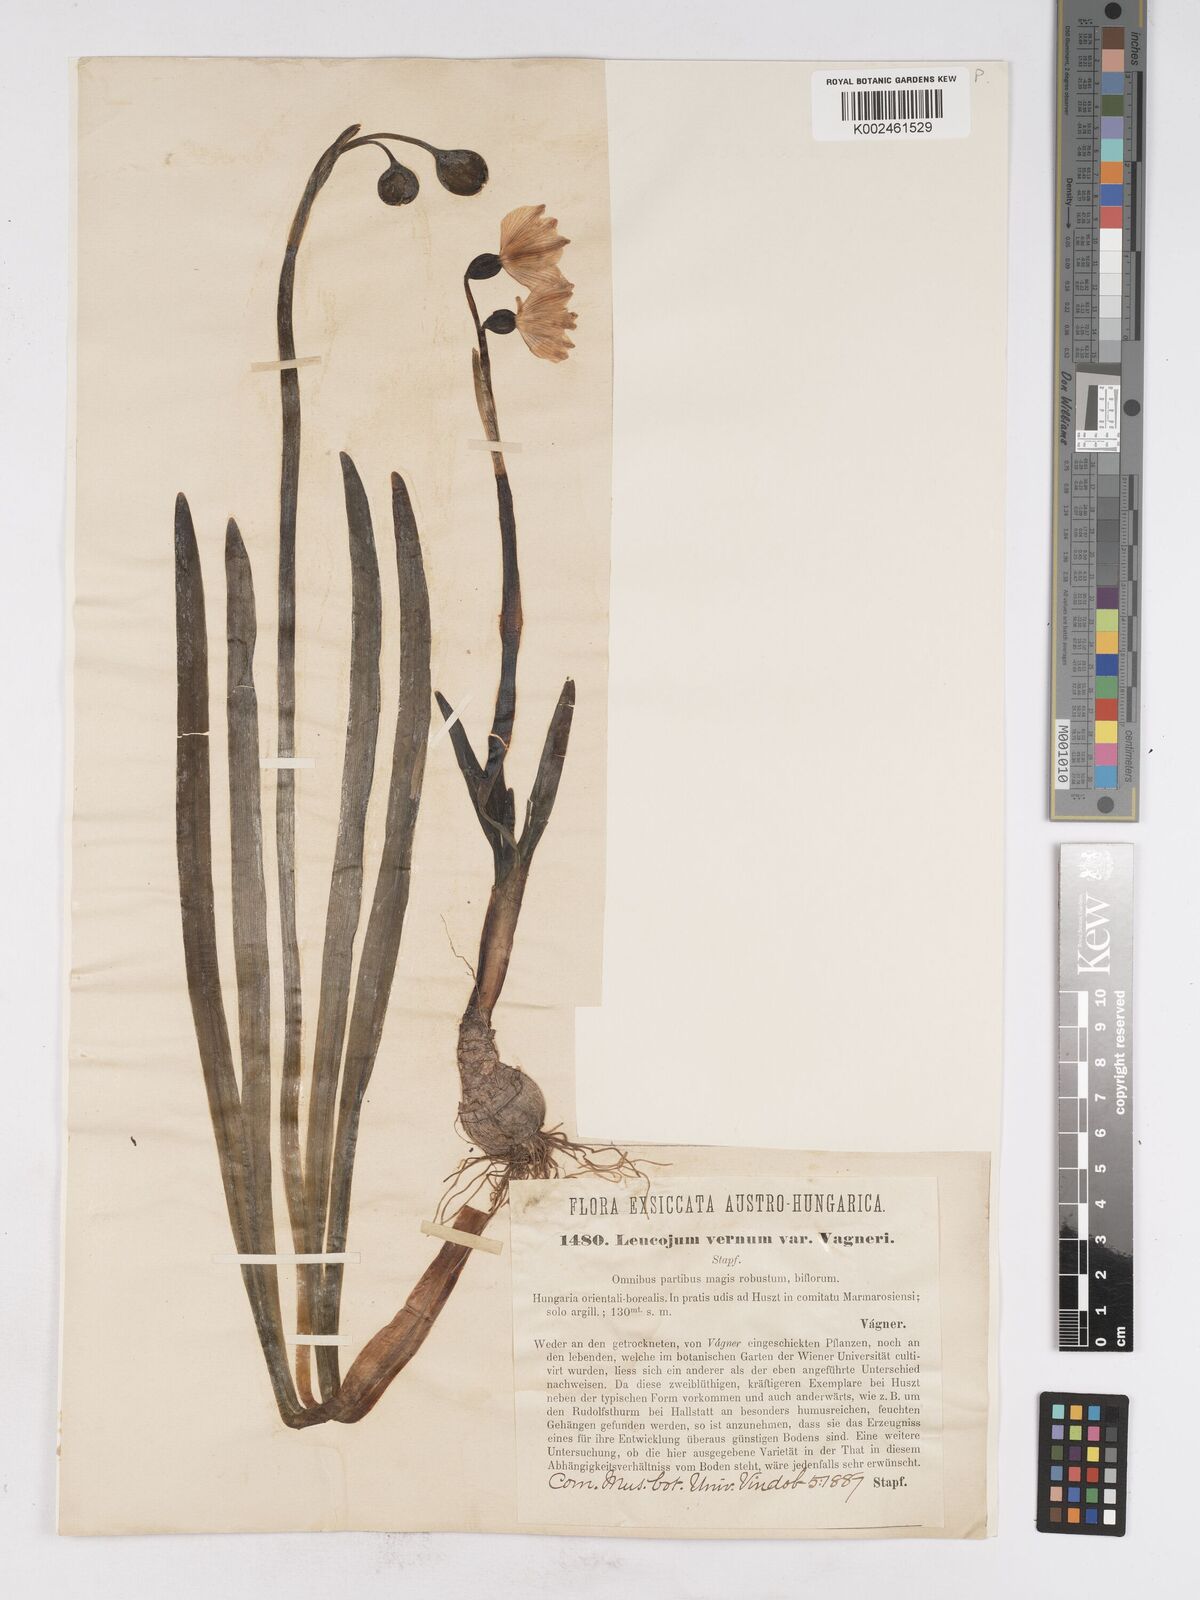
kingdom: Plantae
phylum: Tracheophyta
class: Liliopsida
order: Asparagales
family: Amaryllidaceae
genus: Leucojum
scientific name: Leucojum vernum
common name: Spring snowflake
